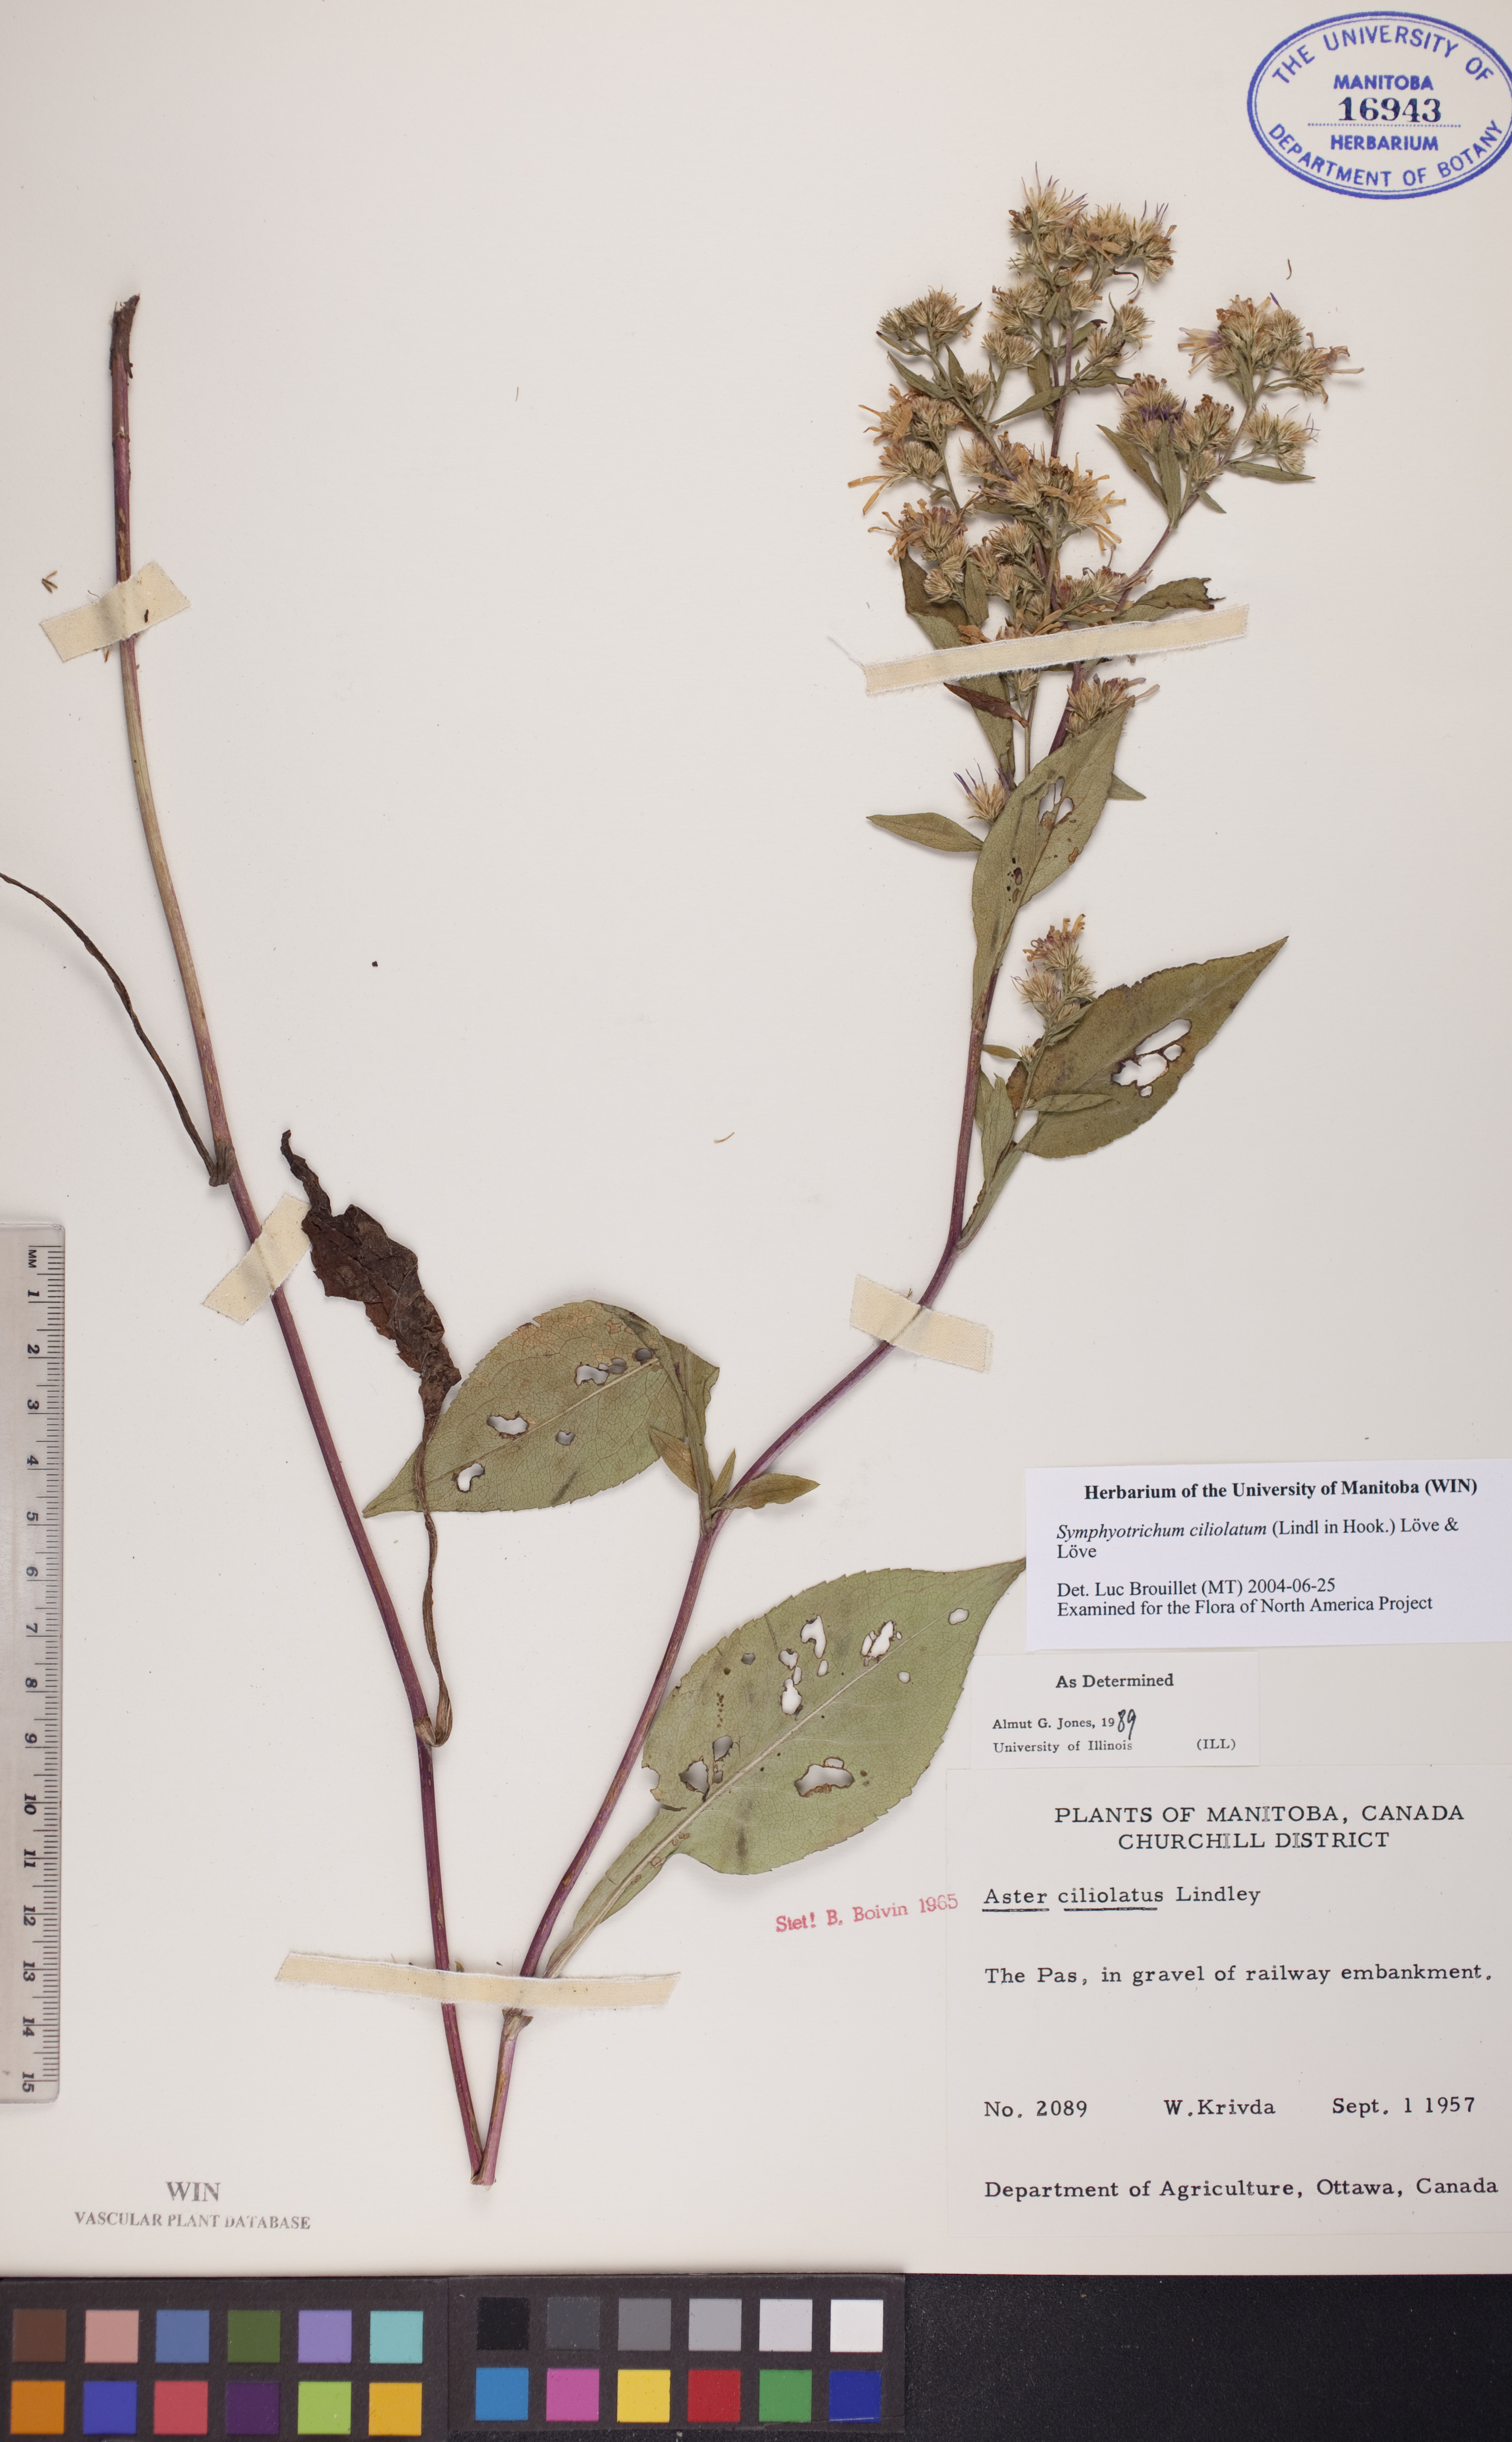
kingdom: Plantae
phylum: Tracheophyta
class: Magnoliopsida
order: Asterales
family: Asteraceae
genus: Symphyotrichum
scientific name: Symphyotrichum ciliolatum
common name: Fringed blue aster
